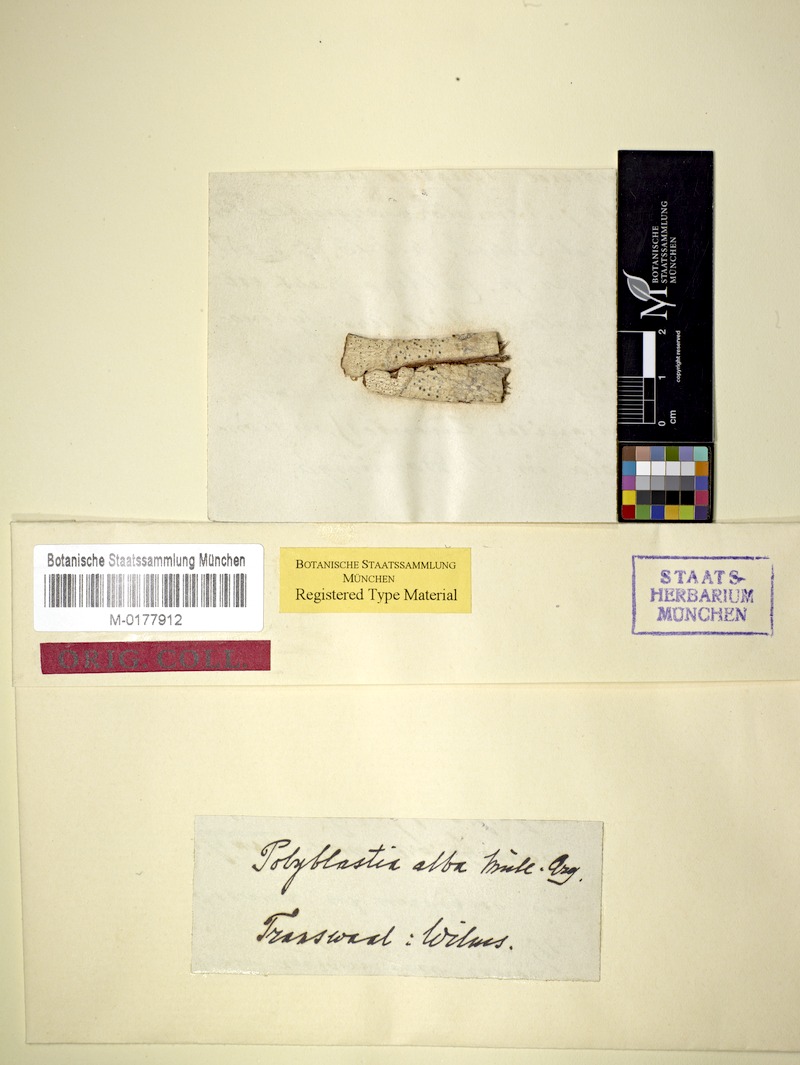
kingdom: Fungi
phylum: Ascomycota
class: Lecanoromycetes
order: Ostropales
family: Thelenellaceae
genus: Polyblastiopsis
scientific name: Polyblastiopsis alba
